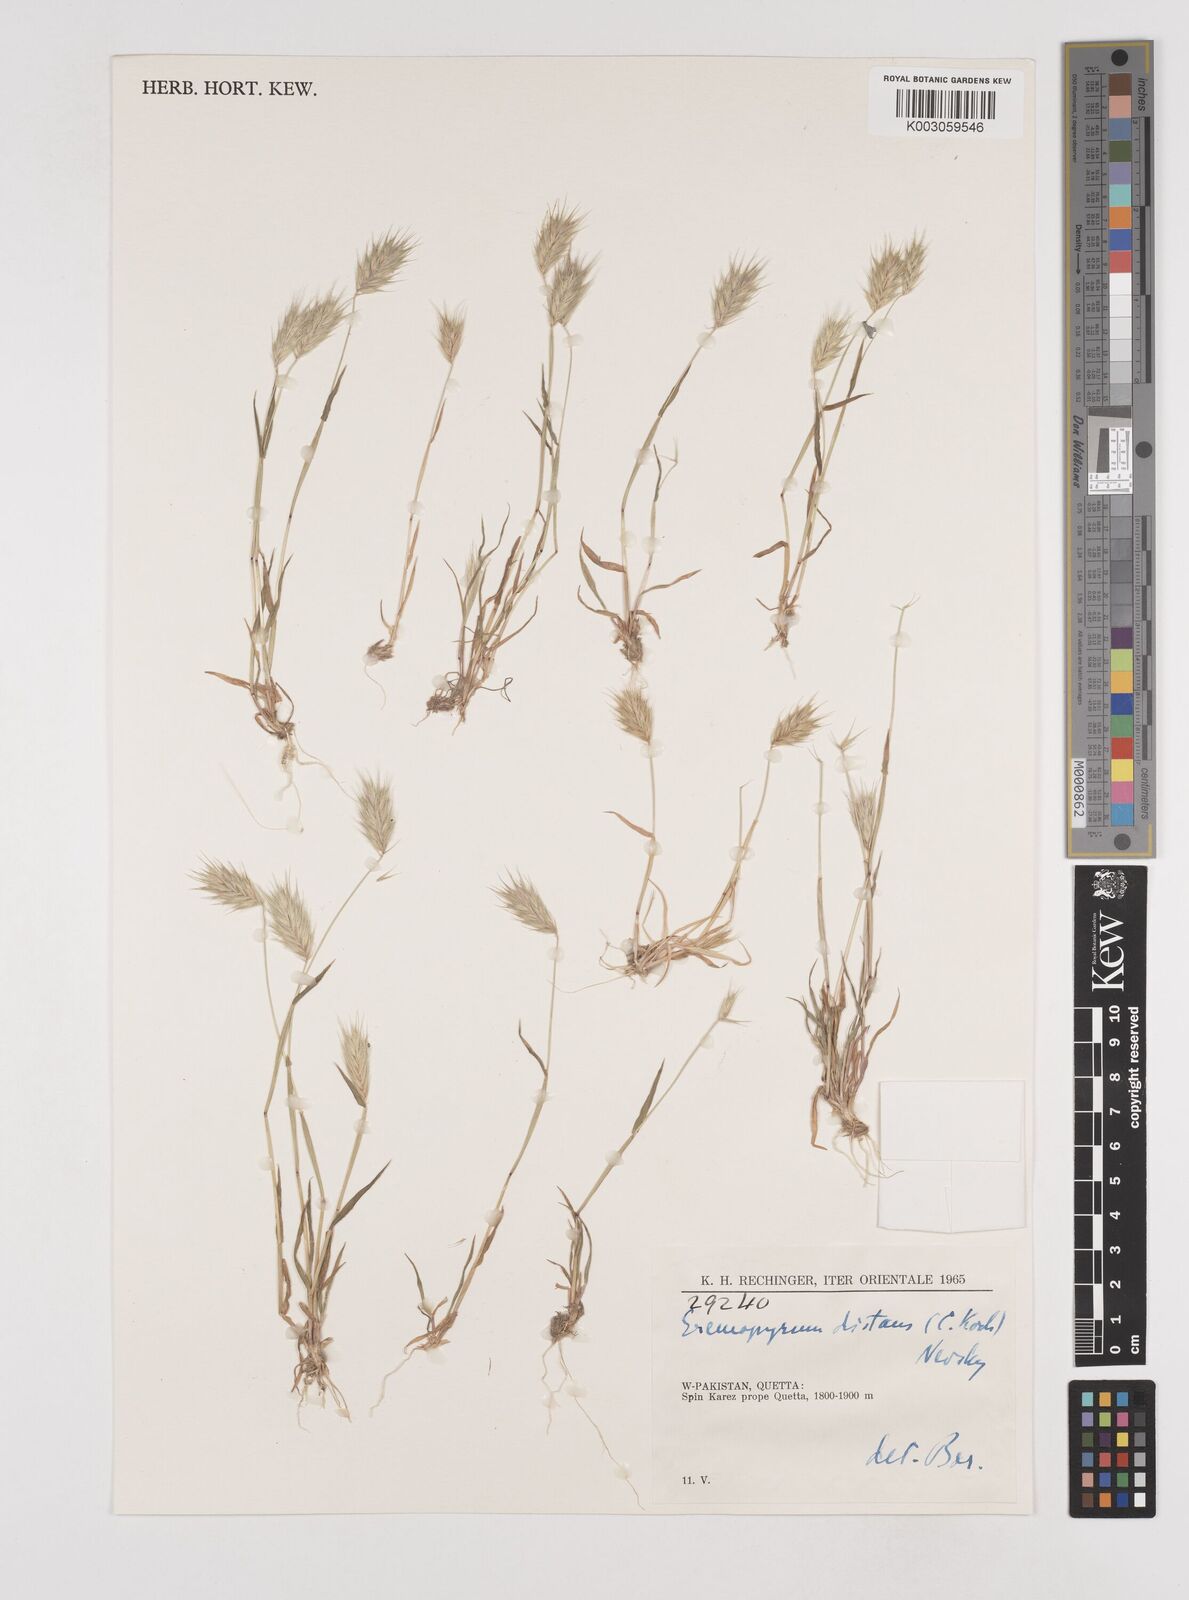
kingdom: Plantae
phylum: Tracheophyta
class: Liliopsida
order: Poales
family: Poaceae
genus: Eremopyrum
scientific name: Eremopyrum distans
